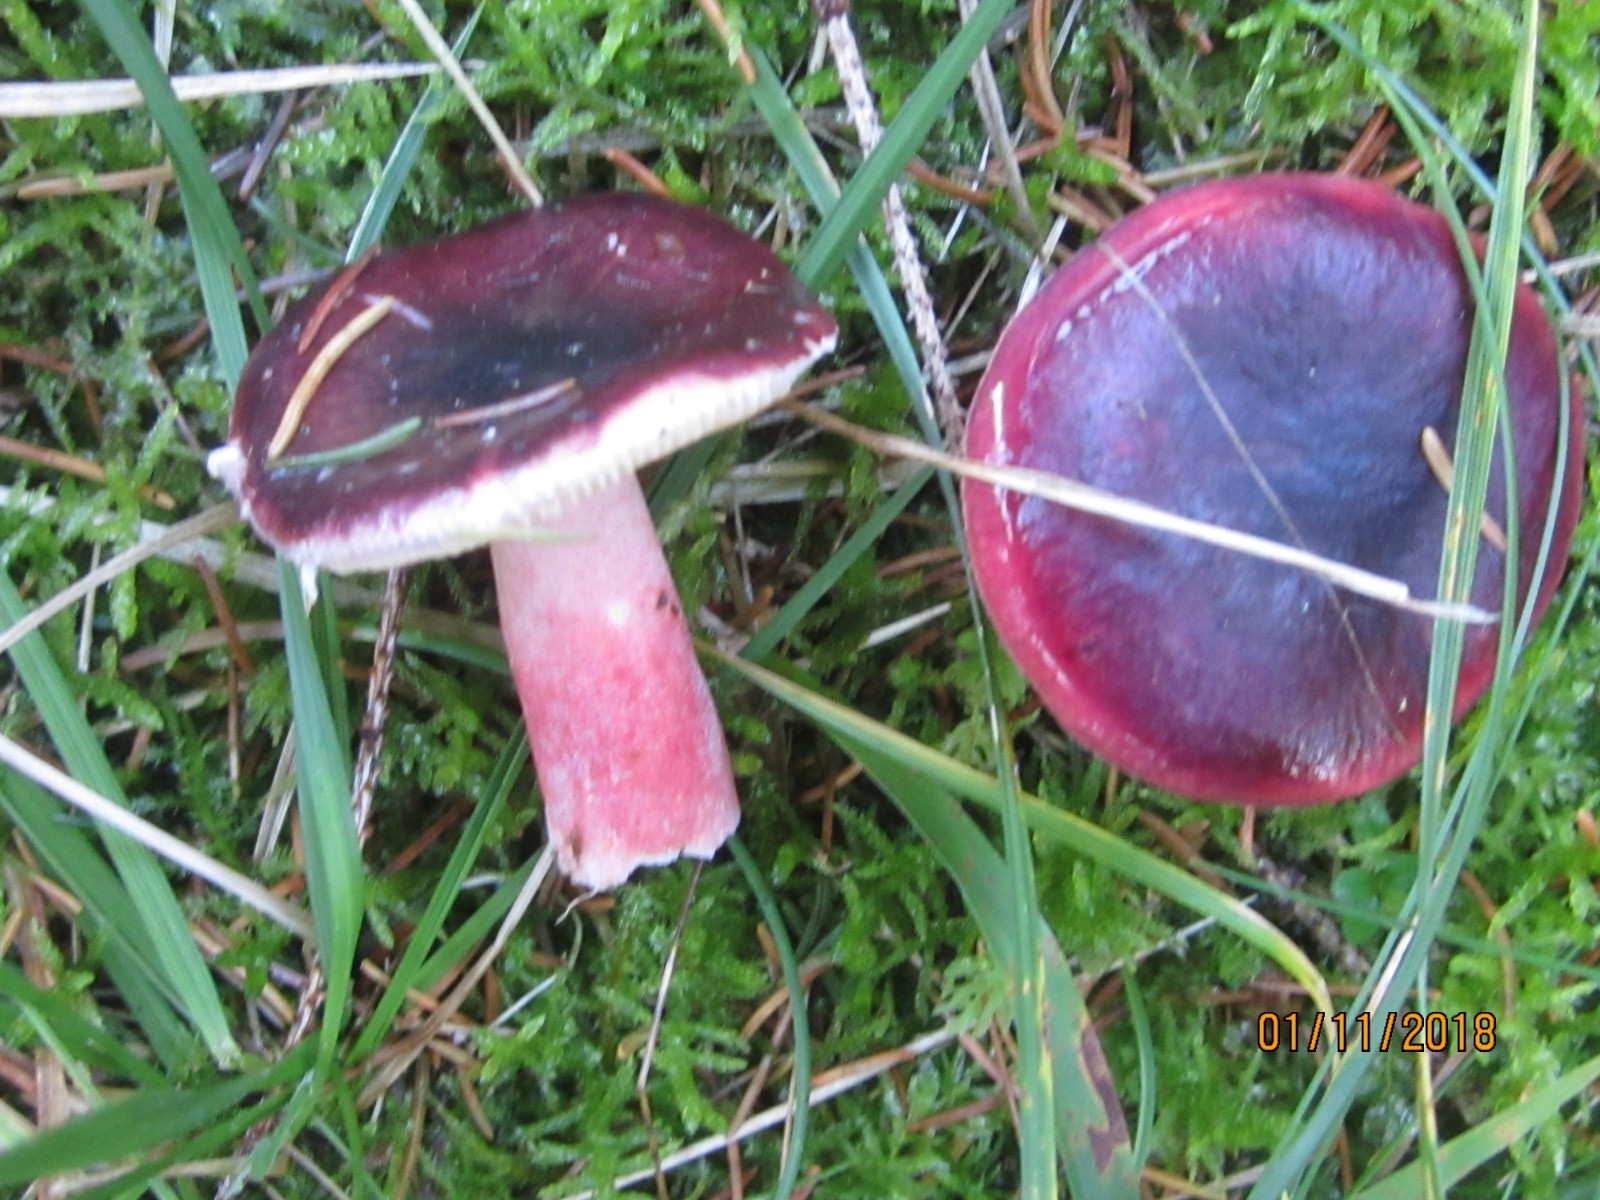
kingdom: Fungi
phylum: Basidiomycota
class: Agaricomycetes
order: Russulales
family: Russulaceae
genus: Russula
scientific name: Russula queletii
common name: Quélets skørhat
